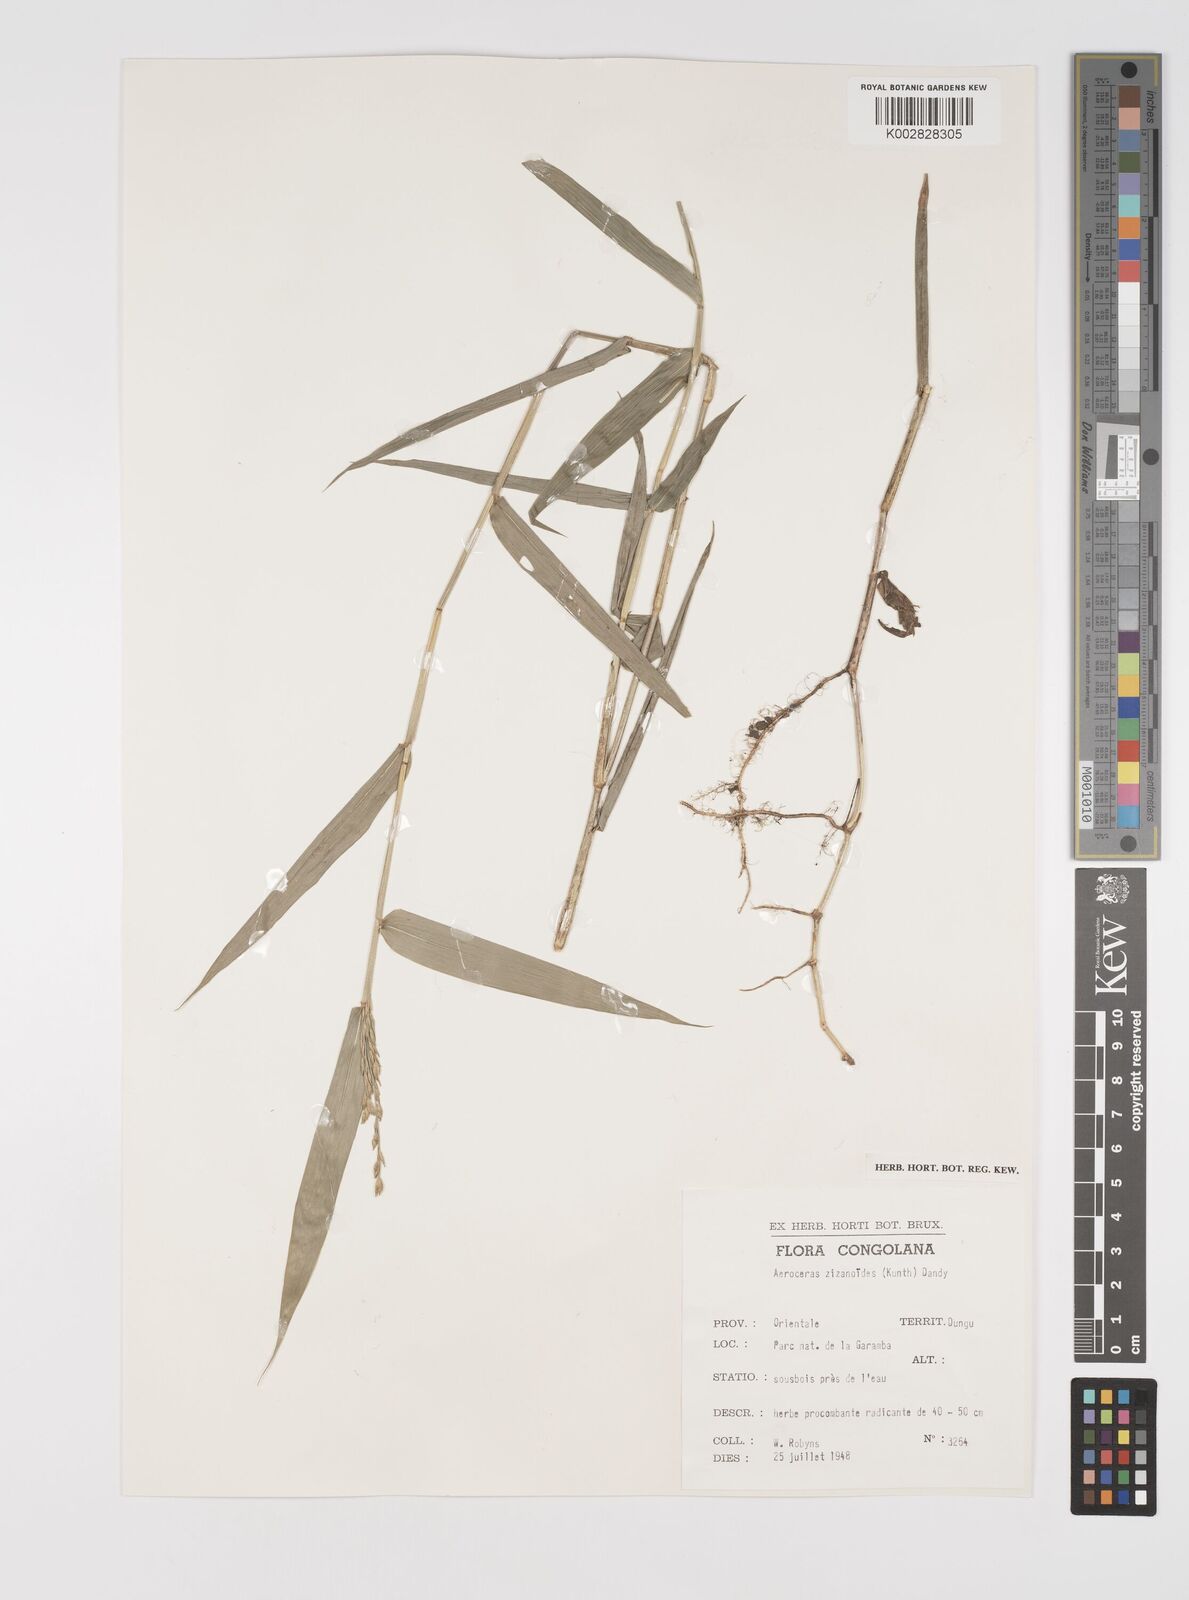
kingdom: Plantae
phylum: Tracheophyta
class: Liliopsida
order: Poales
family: Poaceae
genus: Acroceras
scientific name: Acroceras zizanioides
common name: Oat grass
